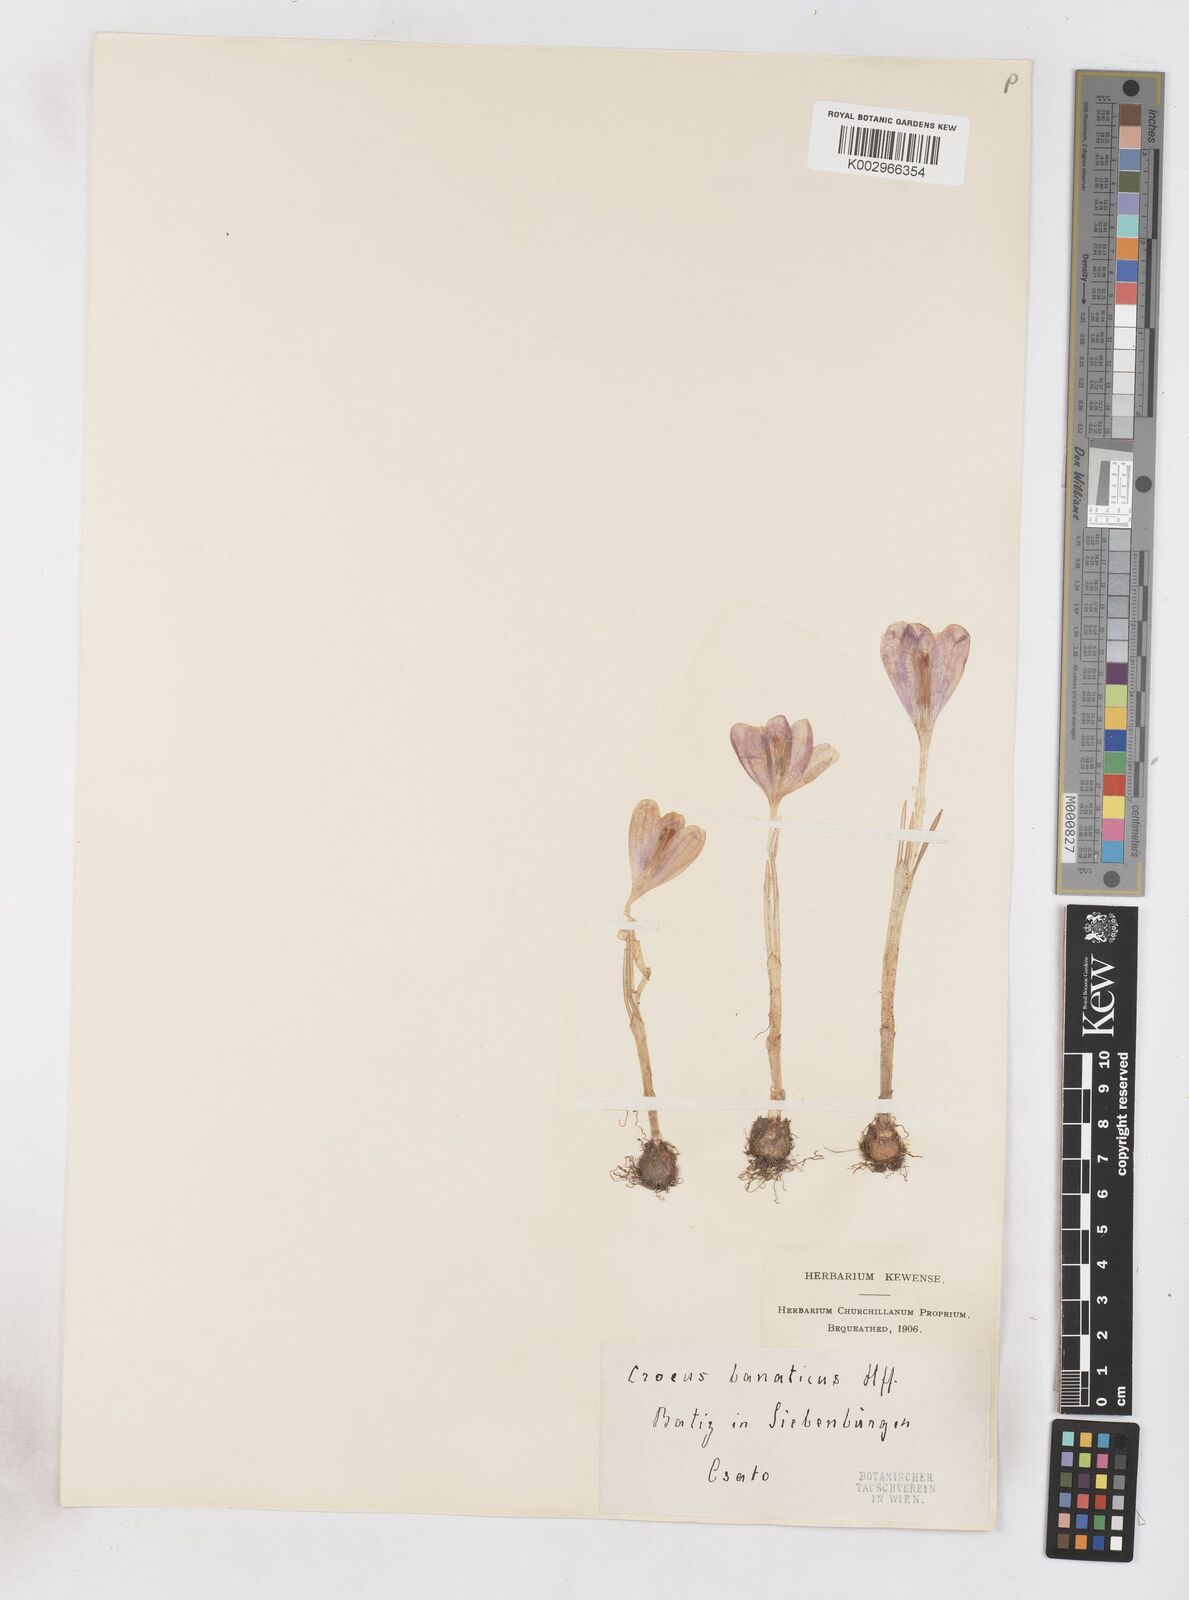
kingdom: Plantae
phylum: Tracheophyta
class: Liliopsida
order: Asparagales
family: Iridaceae
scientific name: Iridaceae
